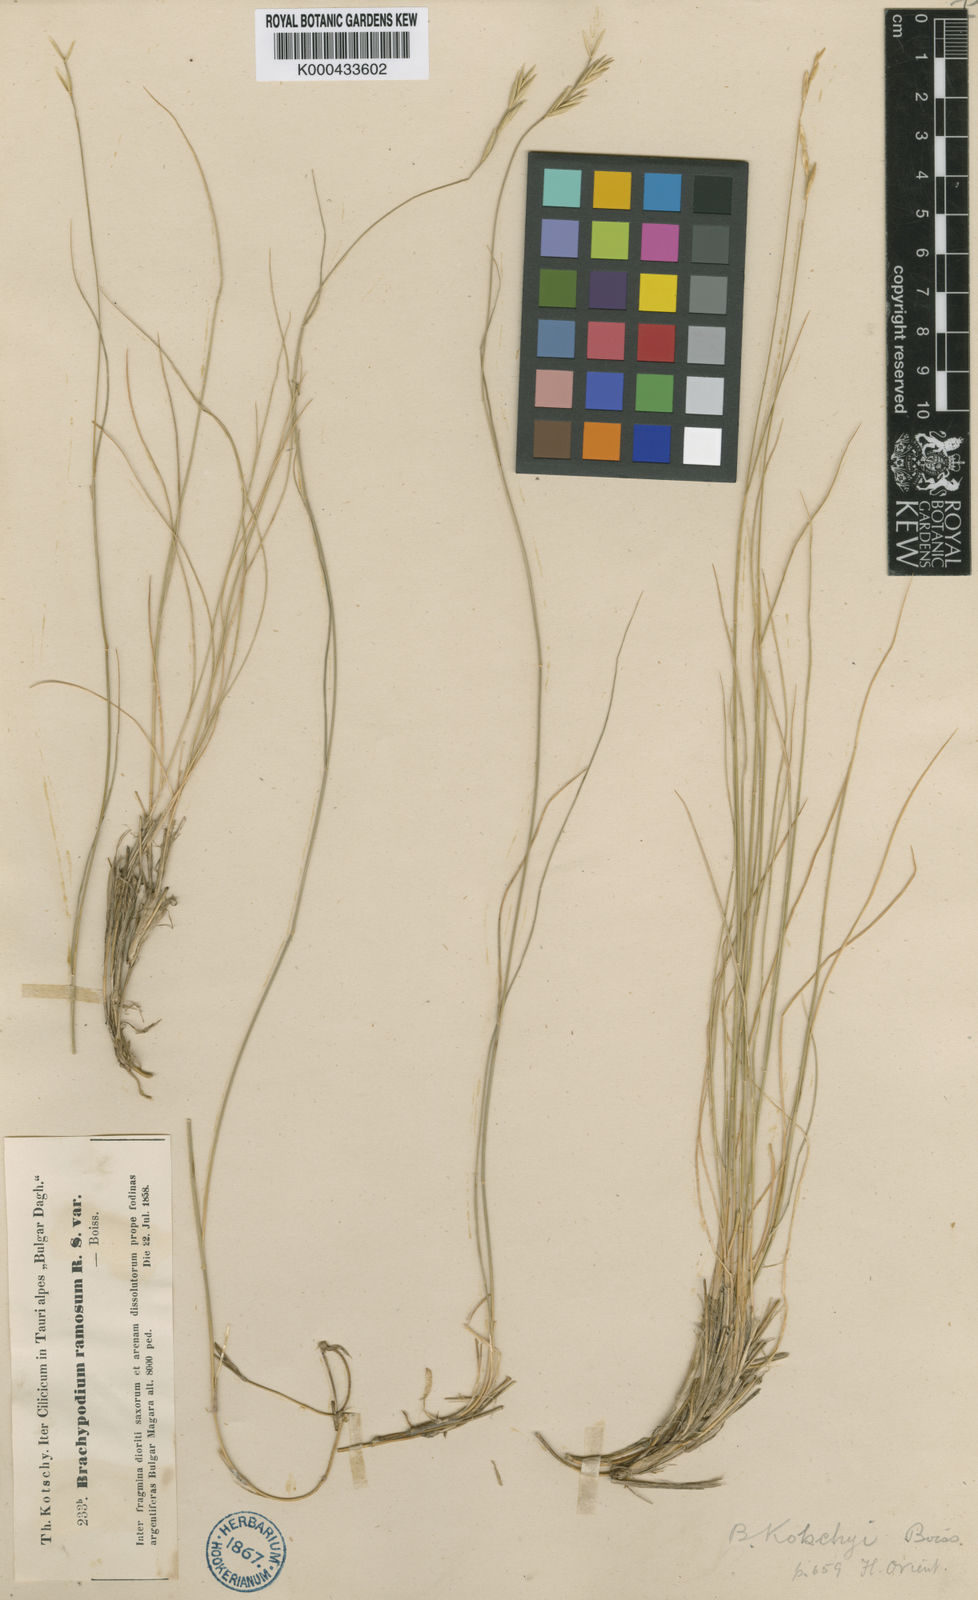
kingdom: Plantae
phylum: Tracheophyta
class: Liliopsida
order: Poales
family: Poaceae
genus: Brachypodium
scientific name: Brachypodium retusum
